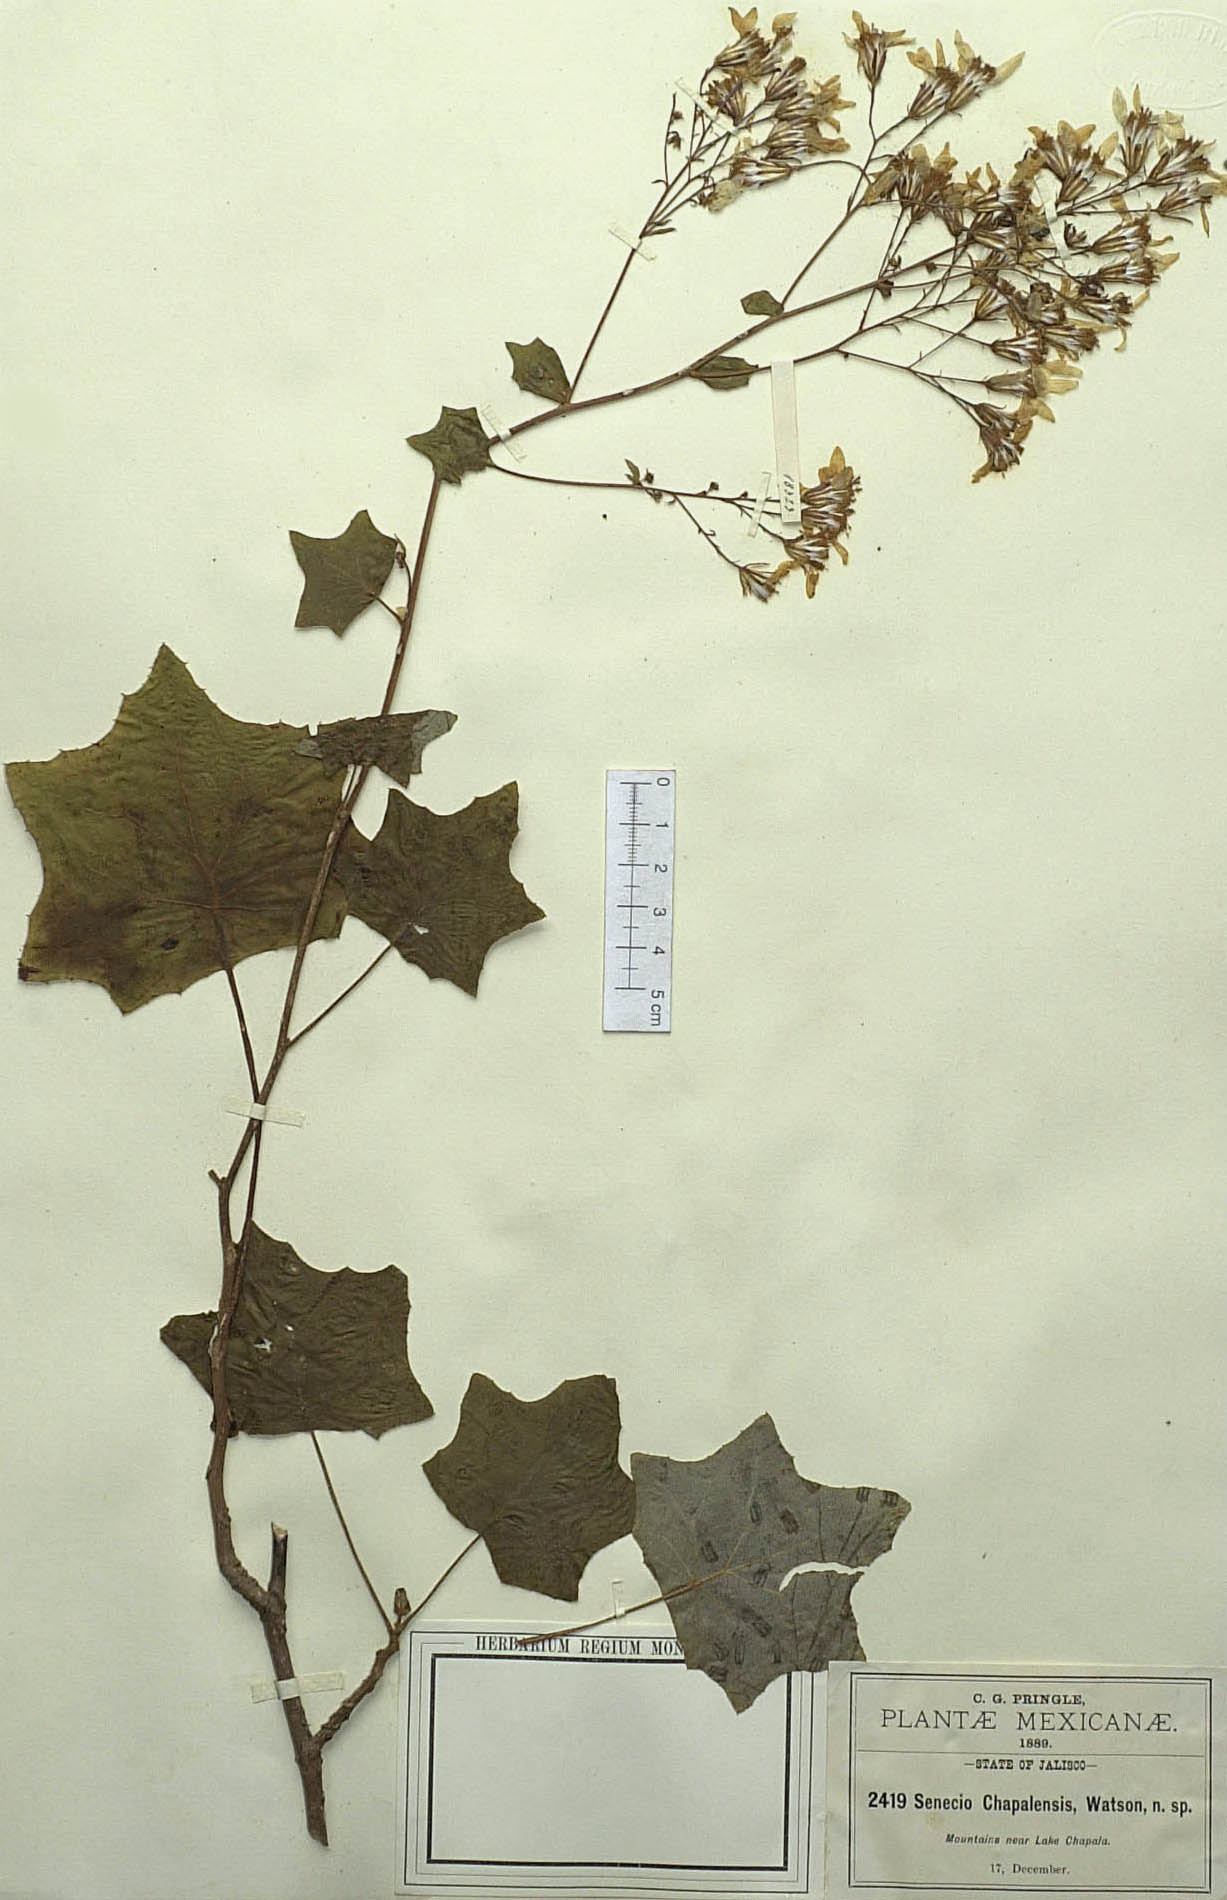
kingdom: Plantae
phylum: Tracheophyta
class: Magnoliopsida
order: Asterales
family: Asteraceae
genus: Roldana
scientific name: Roldana chapalensis
